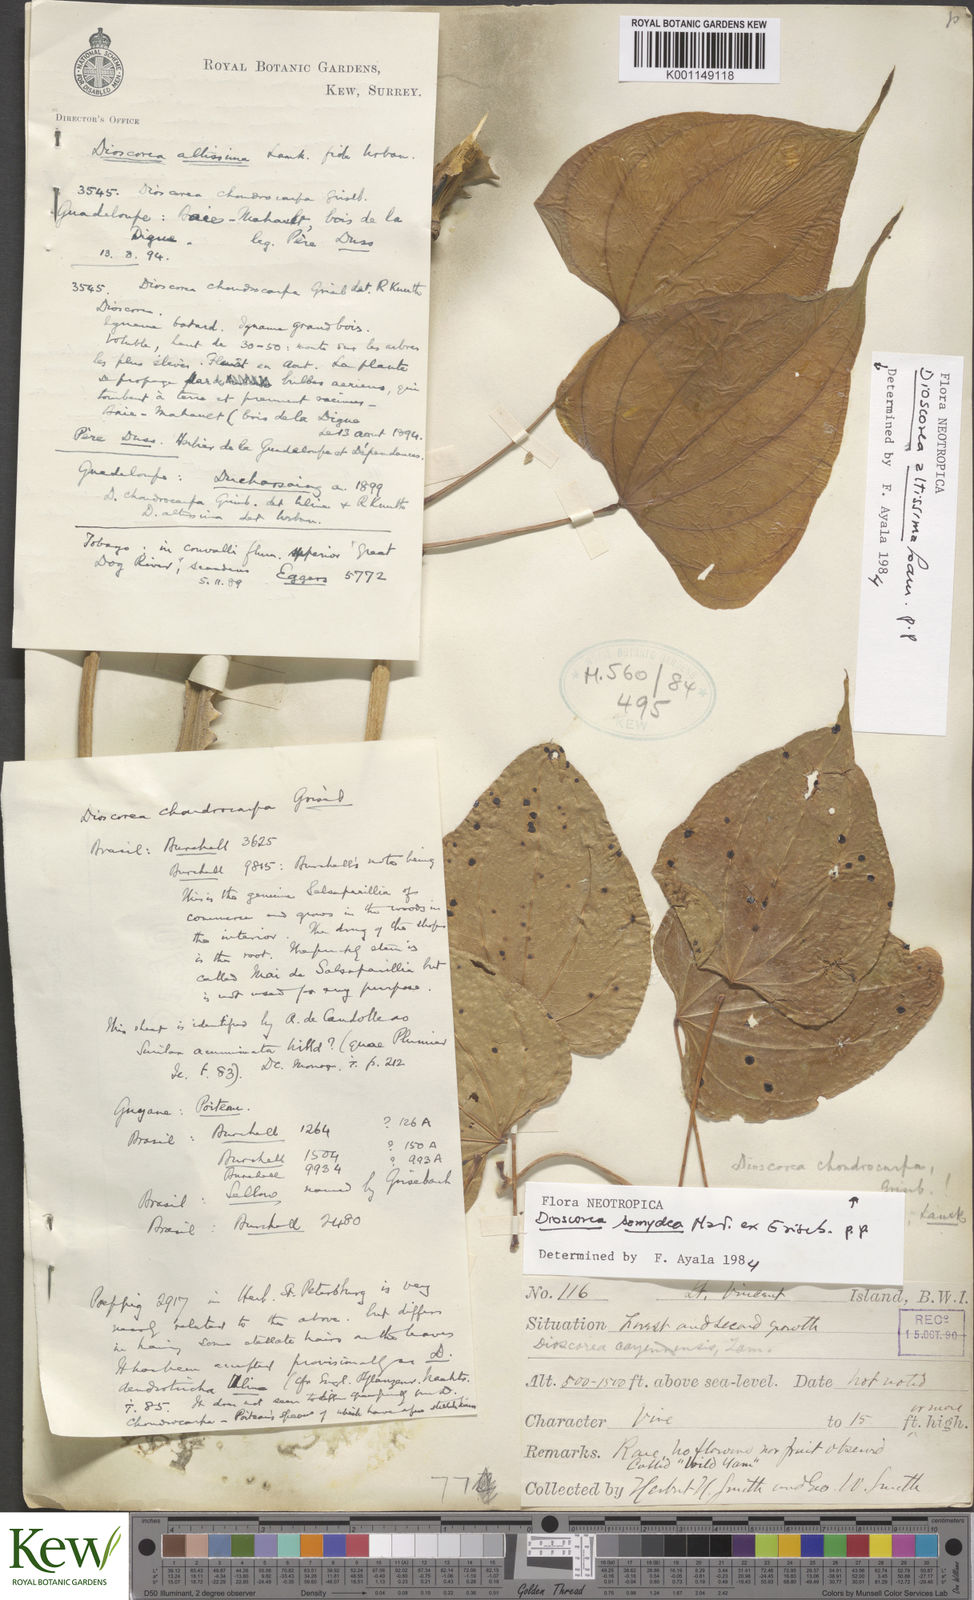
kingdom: Plantae
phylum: Tracheophyta
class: Liliopsida
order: Dioscoreales
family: Dioscoreaceae
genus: Dioscorea
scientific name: Dioscorea cayenensis
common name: Attoto yam
